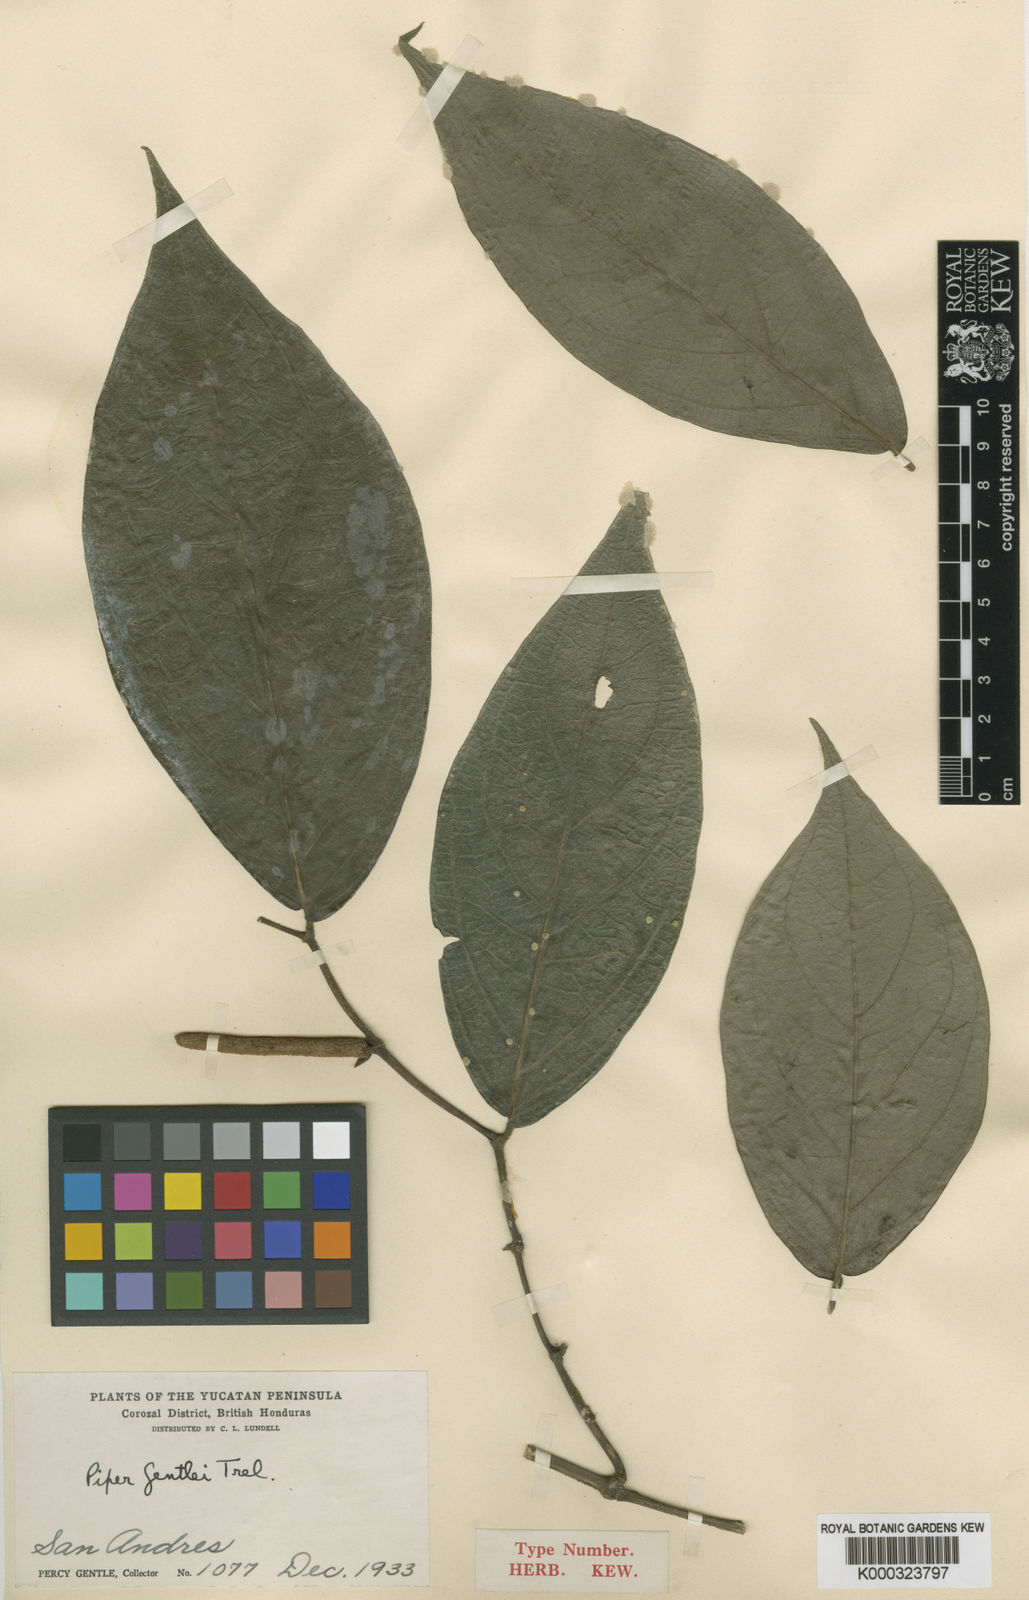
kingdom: Plantae
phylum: Tracheophyta
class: Magnoliopsida
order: Piperales
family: Piperaceae
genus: Piper
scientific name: Piper gentlei
